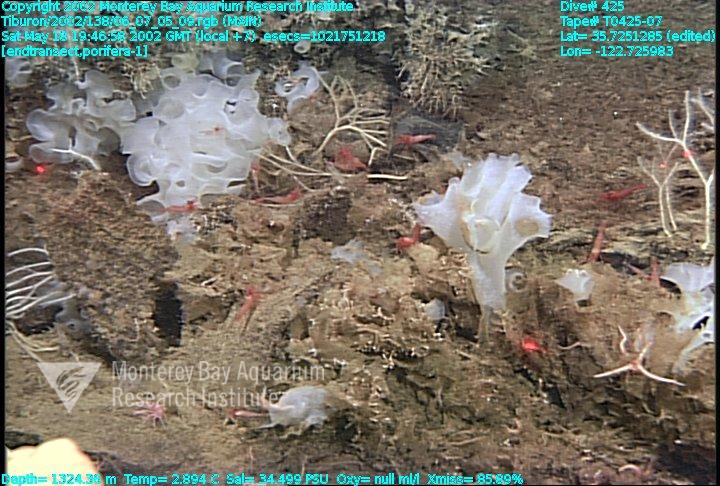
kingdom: Animalia
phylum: Porifera
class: Hexactinellida
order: Sceptrulophora
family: Farreidae
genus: Farrea
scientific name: Farrea occa
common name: Reversed glass sponge
